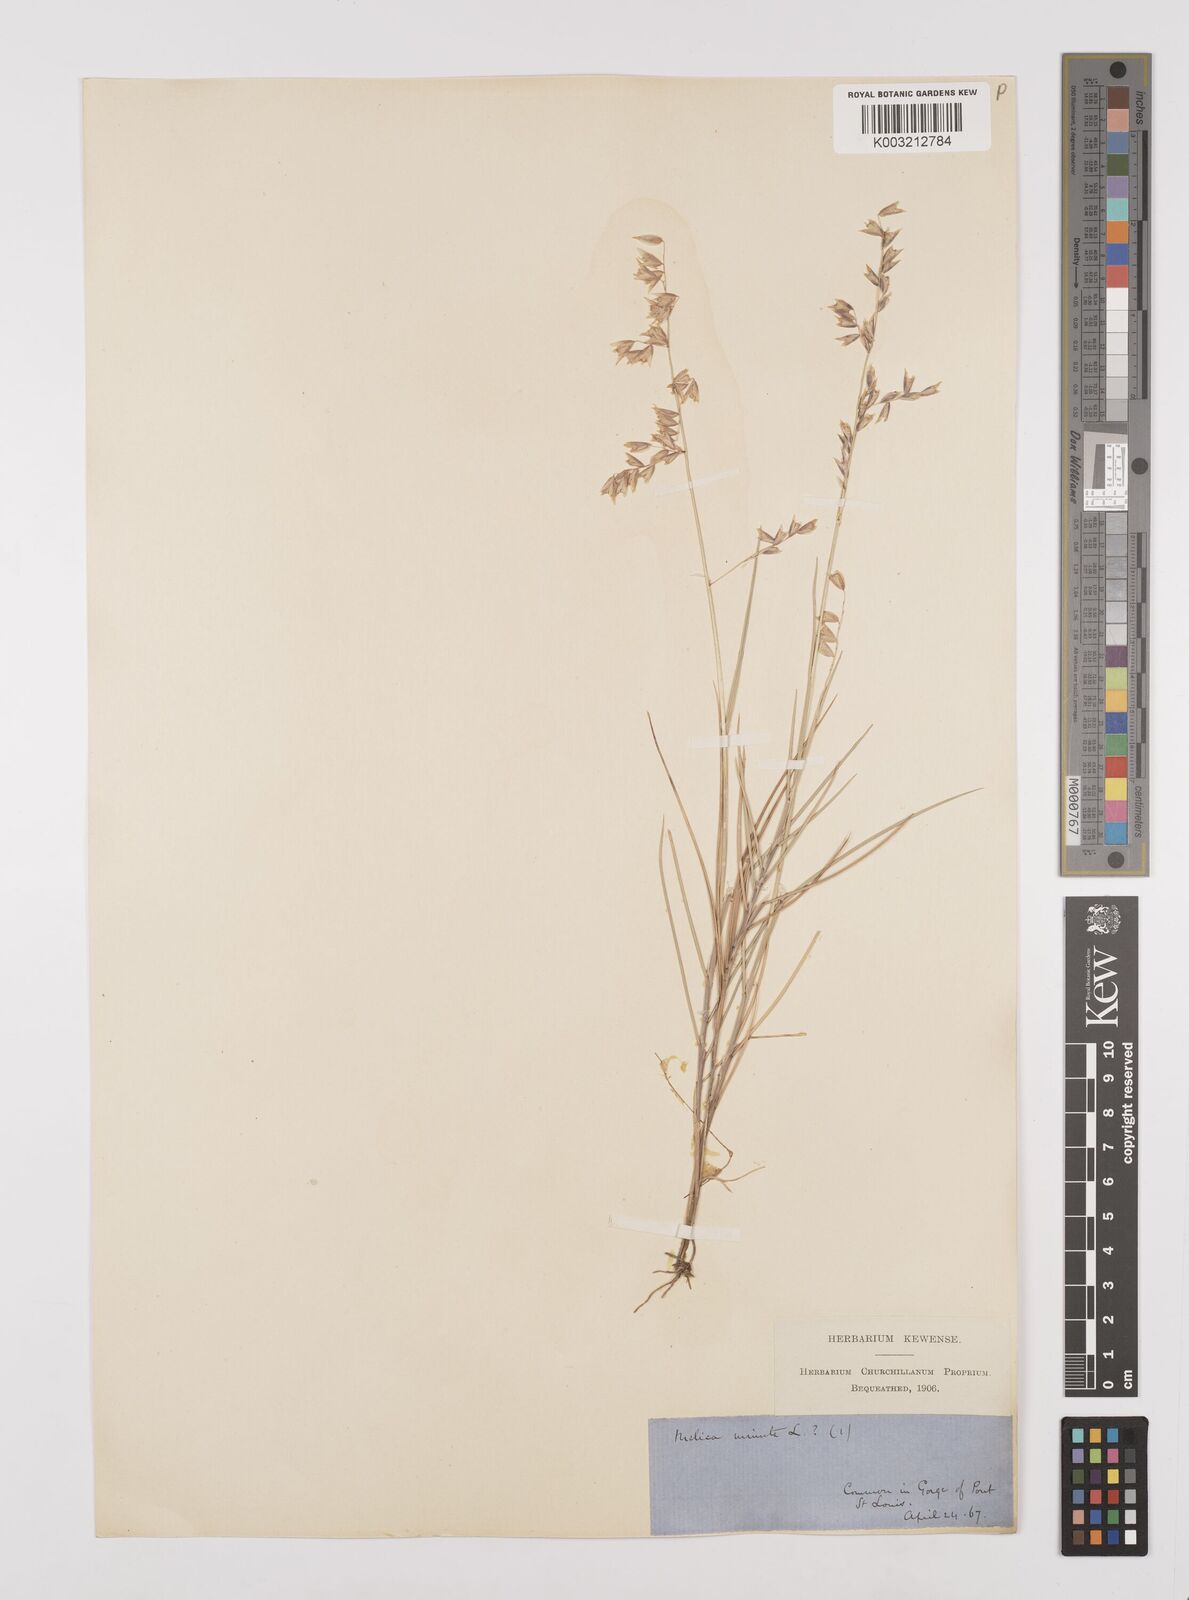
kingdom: Plantae
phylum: Tracheophyta
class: Liliopsida
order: Poales
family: Poaceae
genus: Melica
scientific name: Melica minuta
